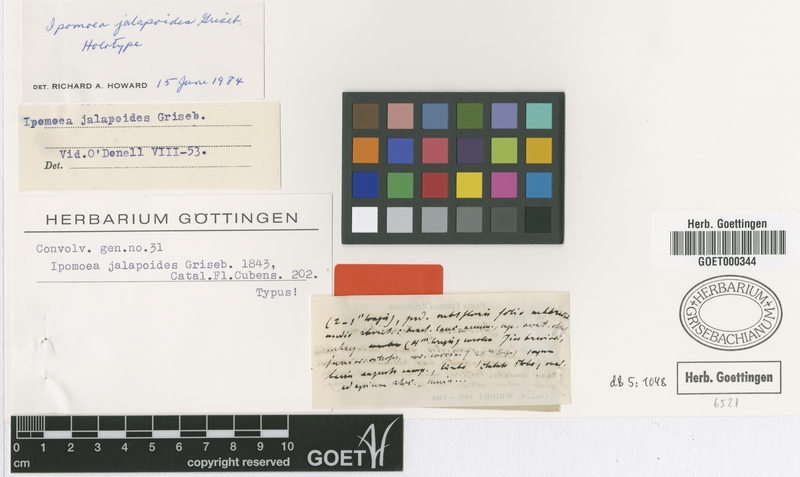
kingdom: Plantae
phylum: Tracheophyta
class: Magnoliopsida
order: Solanales
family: Convolvulaceae
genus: Ipomoea
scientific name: Ipomoea jalapoides
